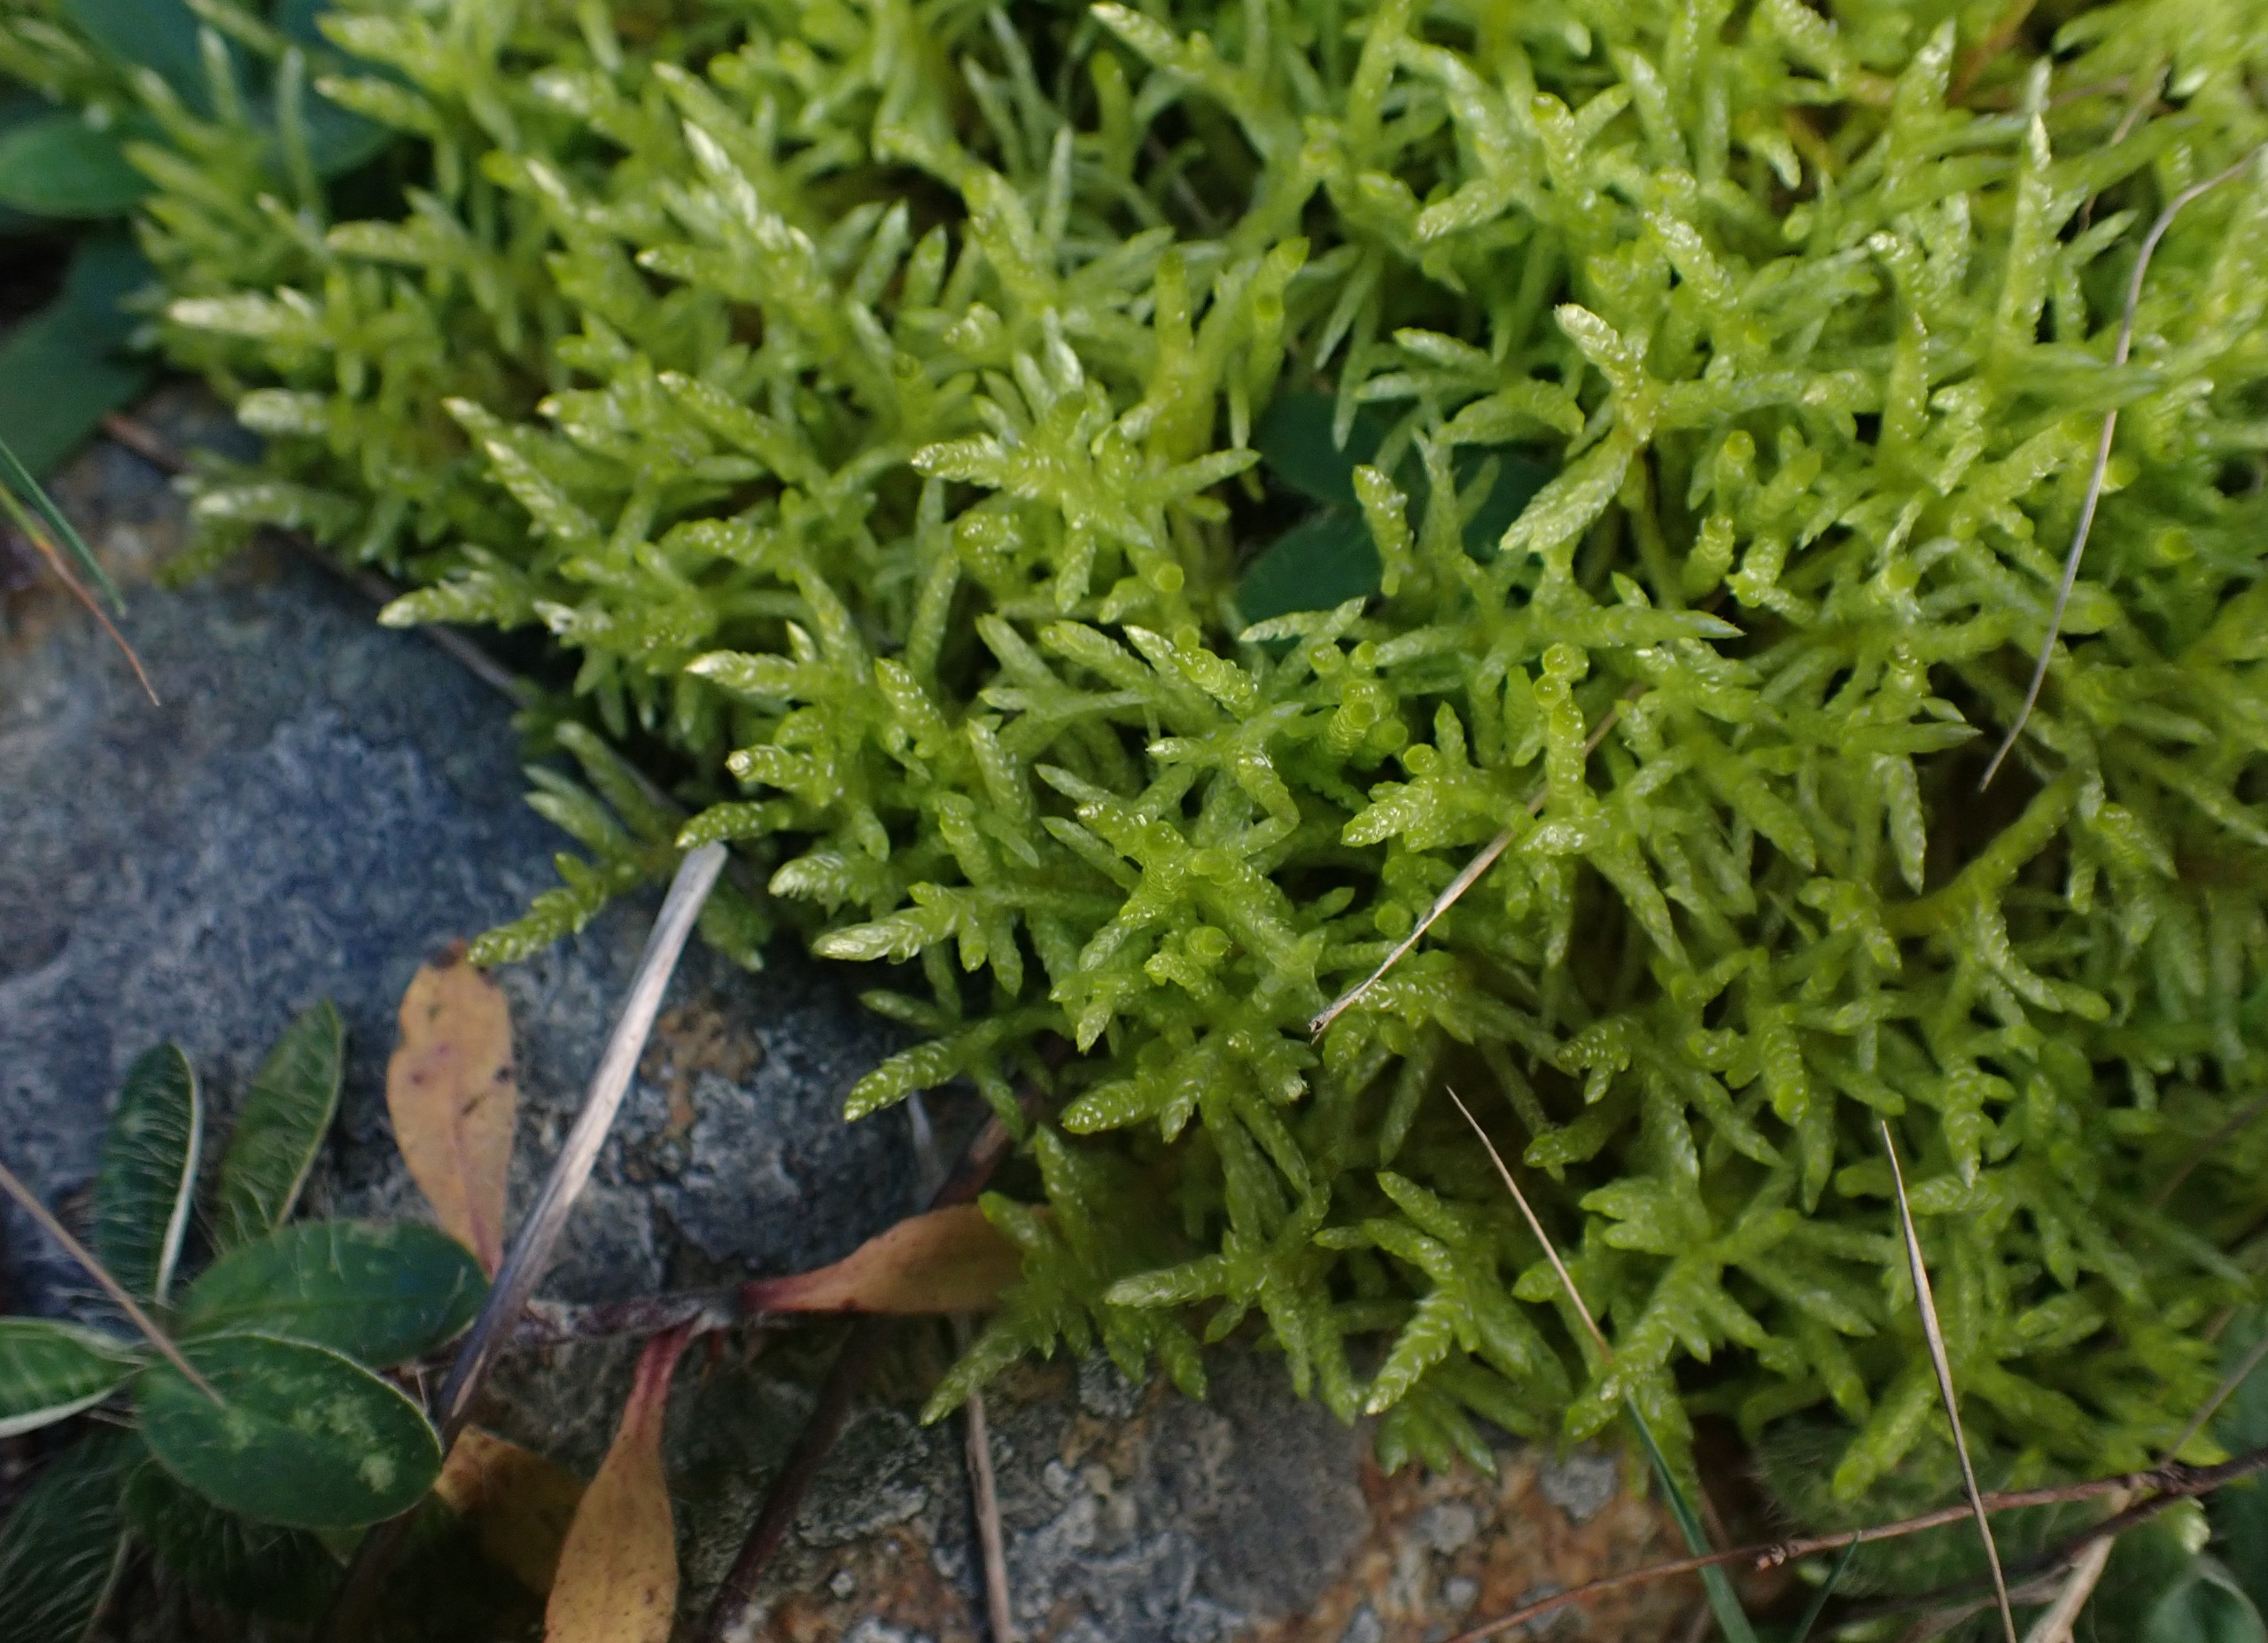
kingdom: Plantae
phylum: Bryophyta
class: Bryopsida
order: Hypnales
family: Brachytheciaceae
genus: Pseudoscleropodium
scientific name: Pseudoscleropodium purum
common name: Hulbladet fedtmos
